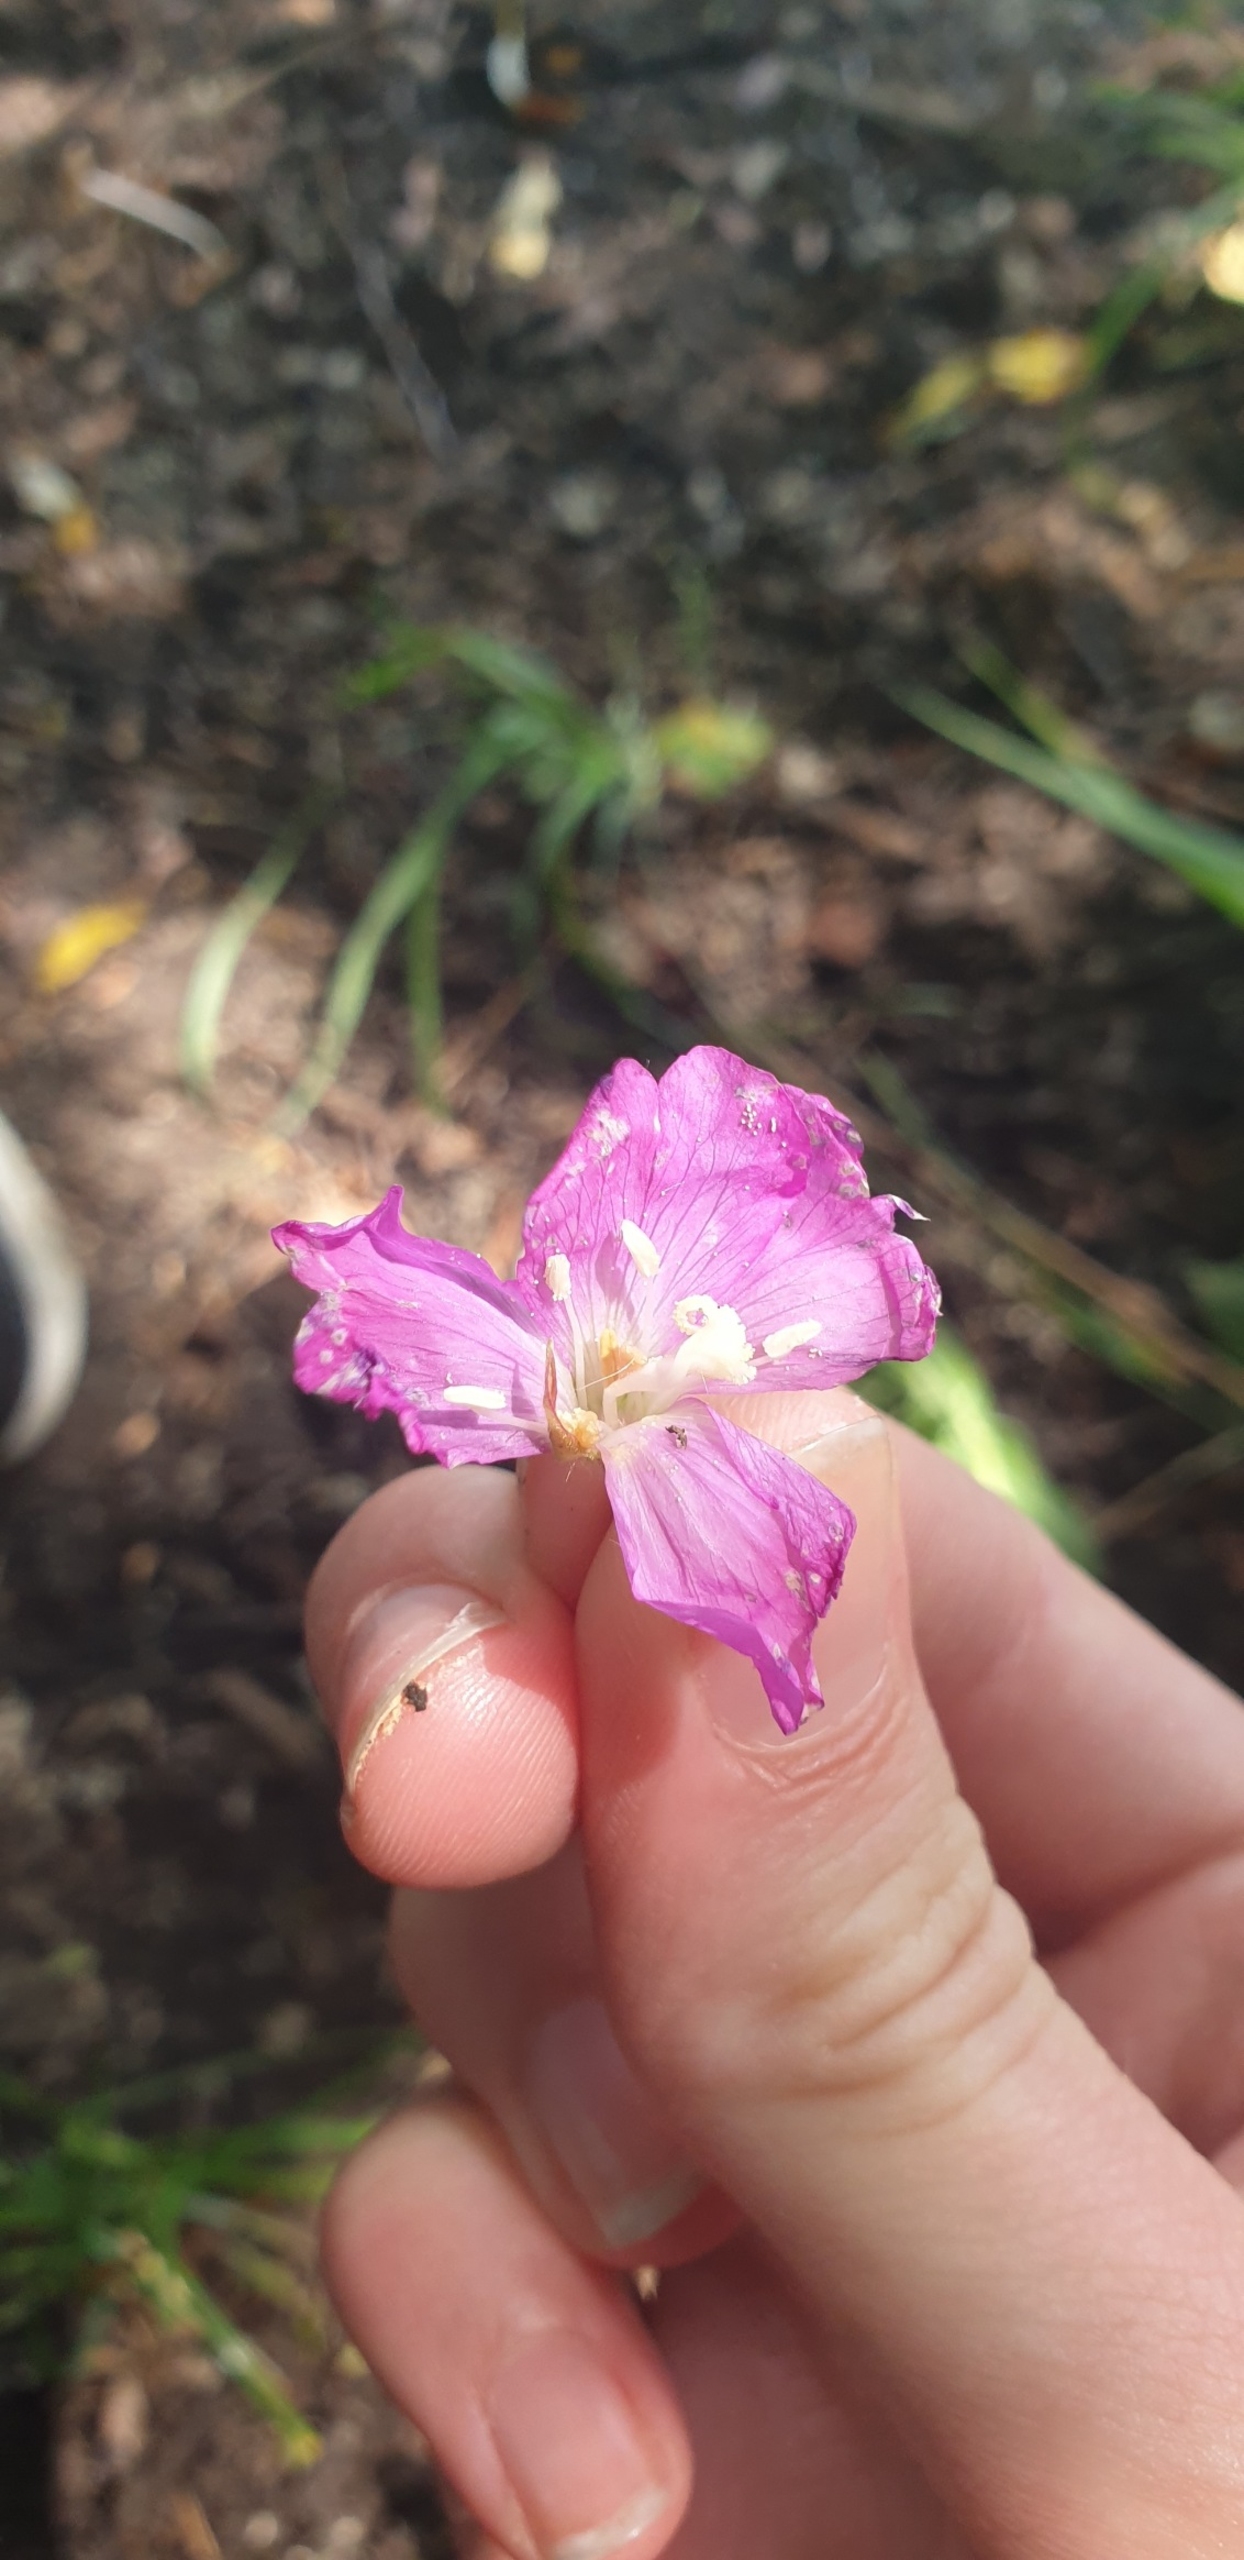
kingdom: Plantae
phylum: Tracheophyta
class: Magnoliopsida
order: Myrtales
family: Onagraceae
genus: Epilobium
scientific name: Epilobium hirsutum
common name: Lådden dueurt
